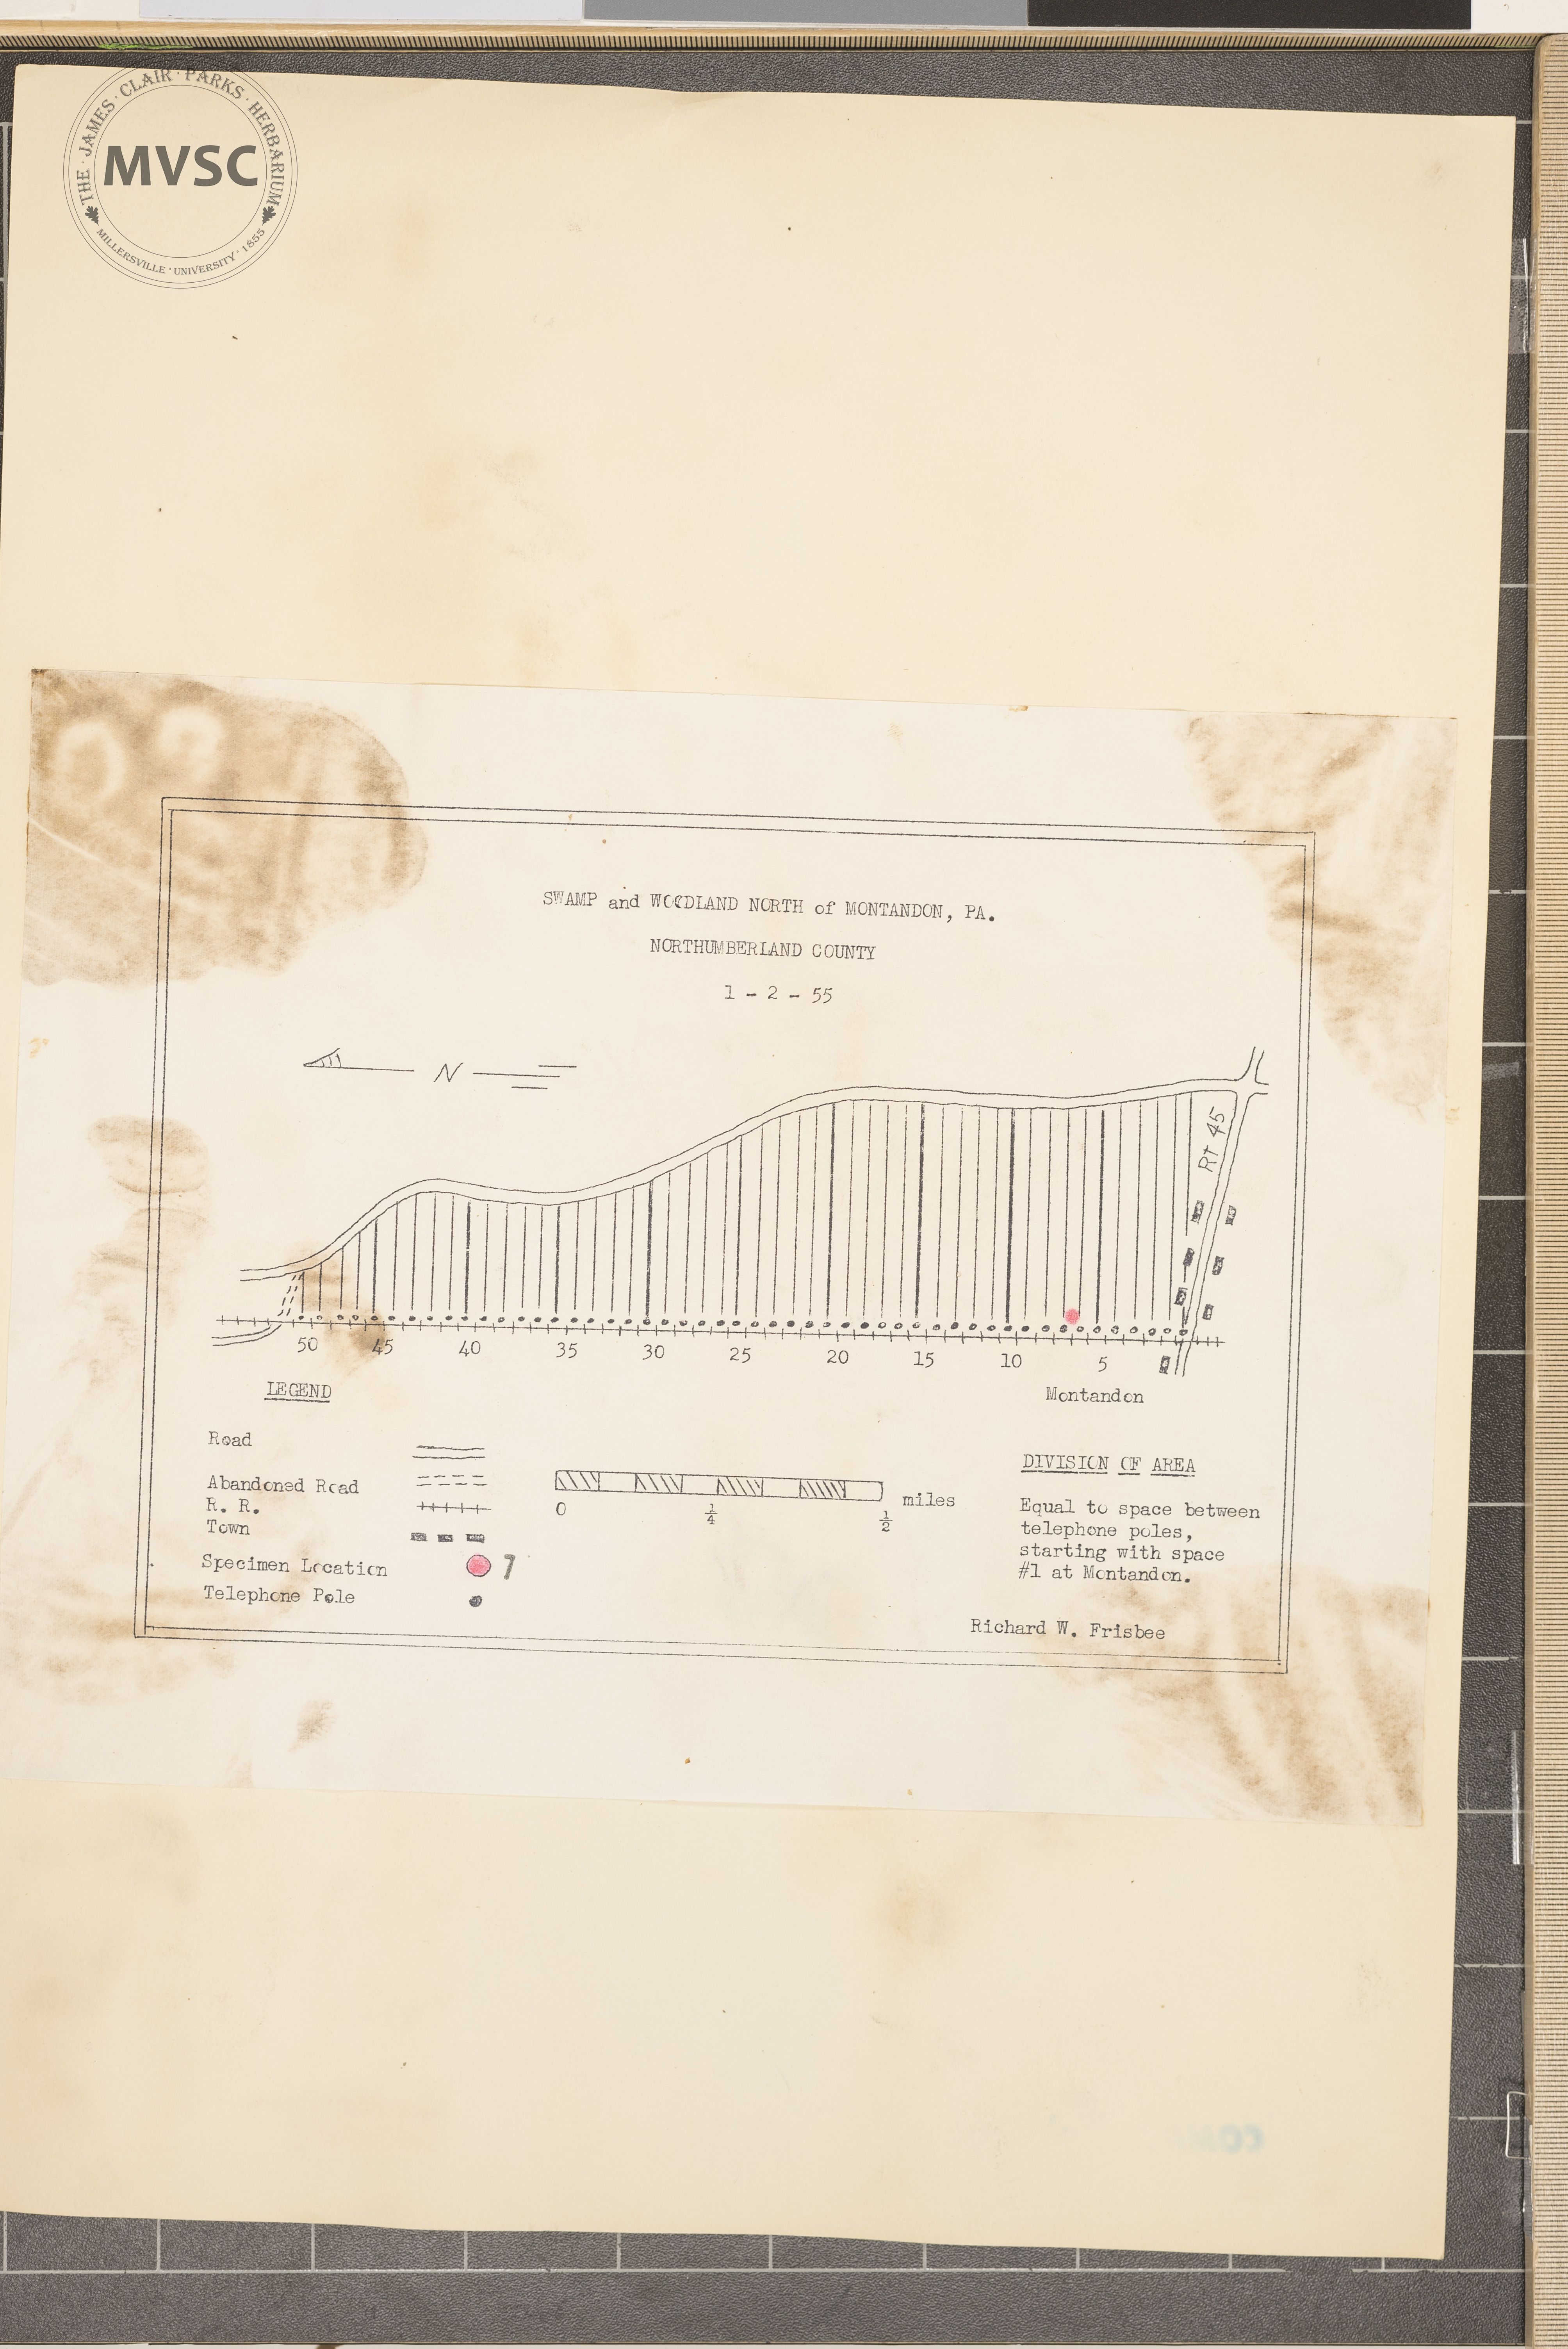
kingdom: Plantae
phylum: Tracheophyta
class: Magnoliopsida
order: Rosales
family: Rosaceae
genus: Spiraea
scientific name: Spiraea alba
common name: Pale bridewort
